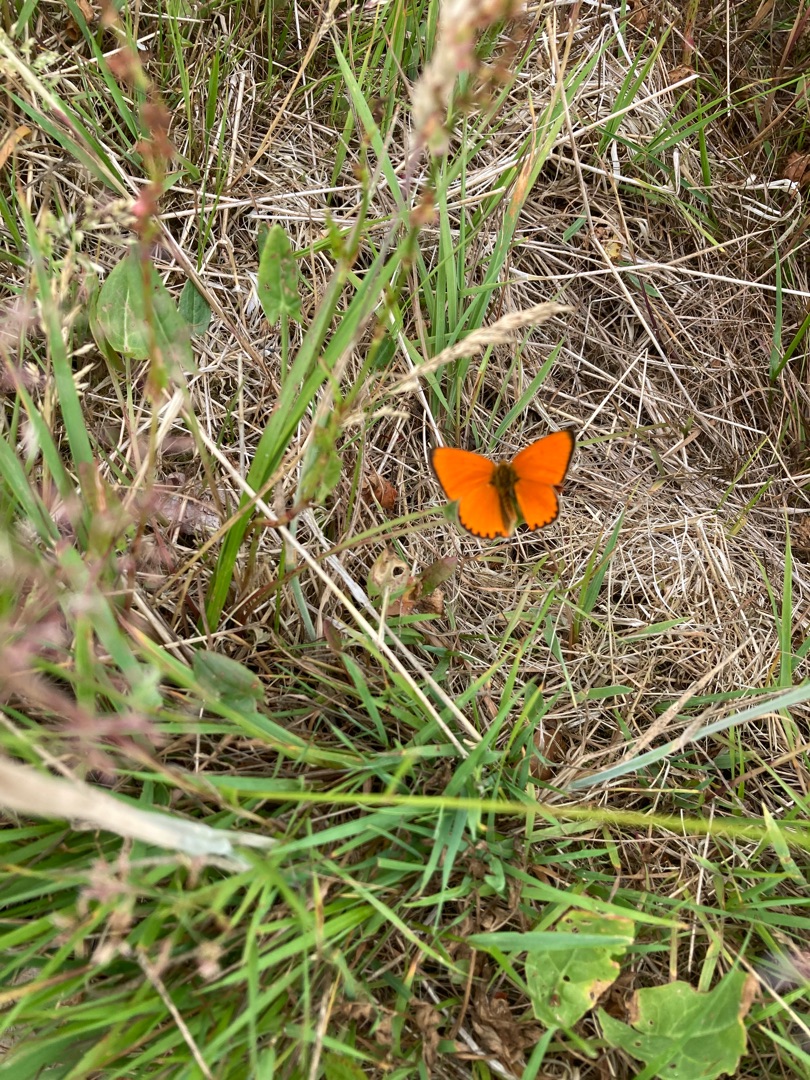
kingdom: Animalia
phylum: Arthropoda
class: Insecta
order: Lepidoptera
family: Lycaenidae
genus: Lycaena
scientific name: Lycaena virgaureae
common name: Dukatsommerfugl
